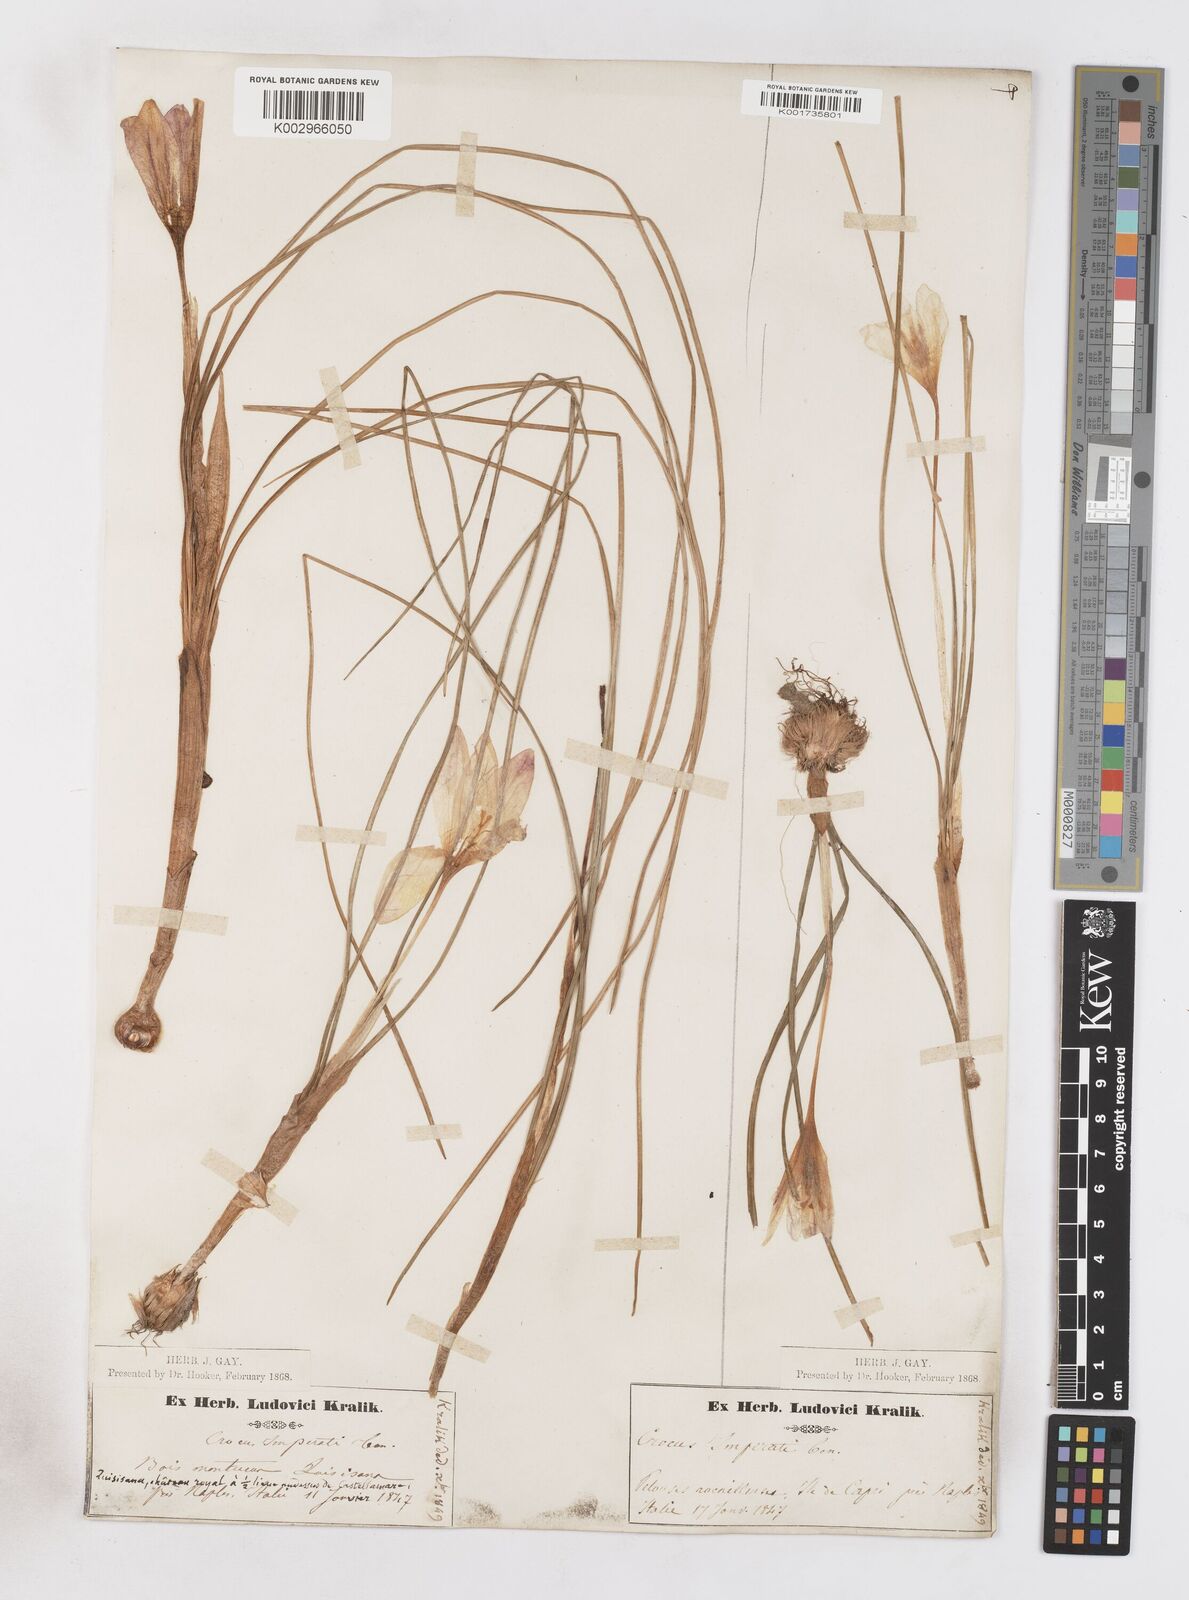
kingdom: Plantae
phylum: Tracheophyta
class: Liliopsida
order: Asparagales
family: Iridaceae
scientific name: Iridaceae
